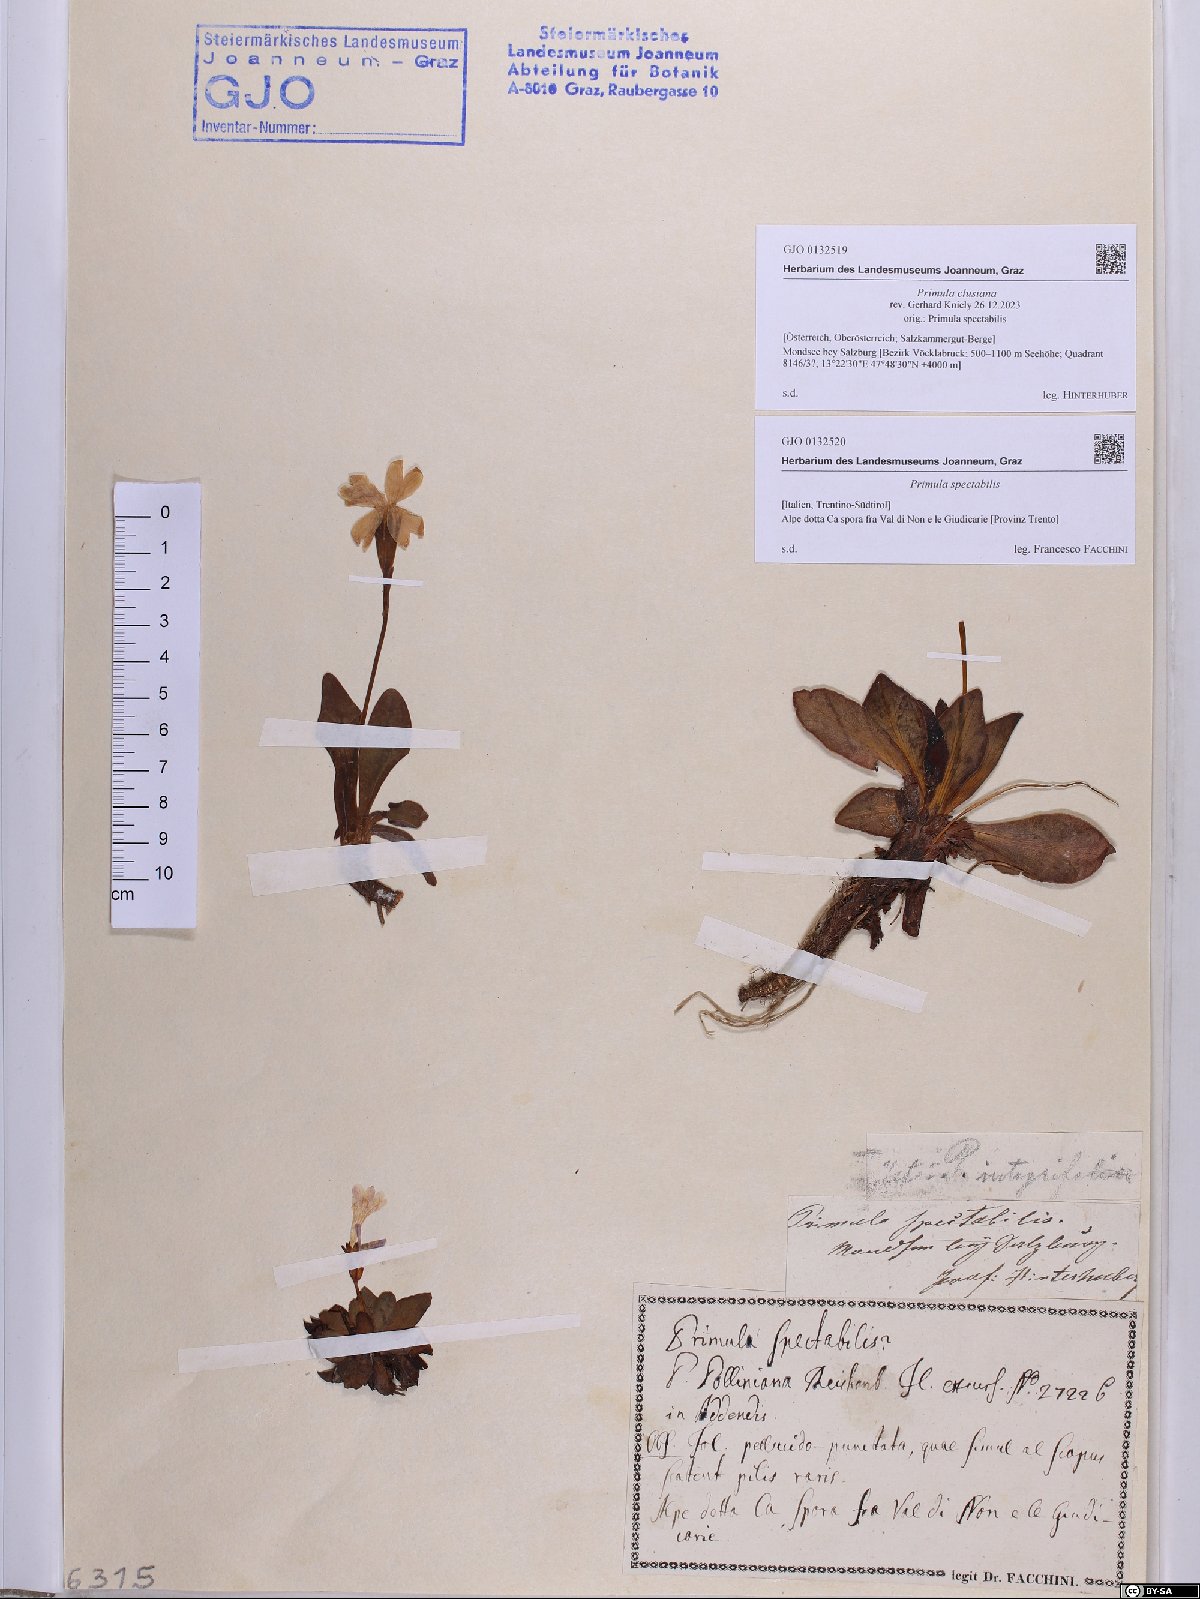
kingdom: Plantae
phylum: Tracheophyta
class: Magnoliopsida
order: Ericales
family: Primulaceae
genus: Primula
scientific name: Primula clusiana
